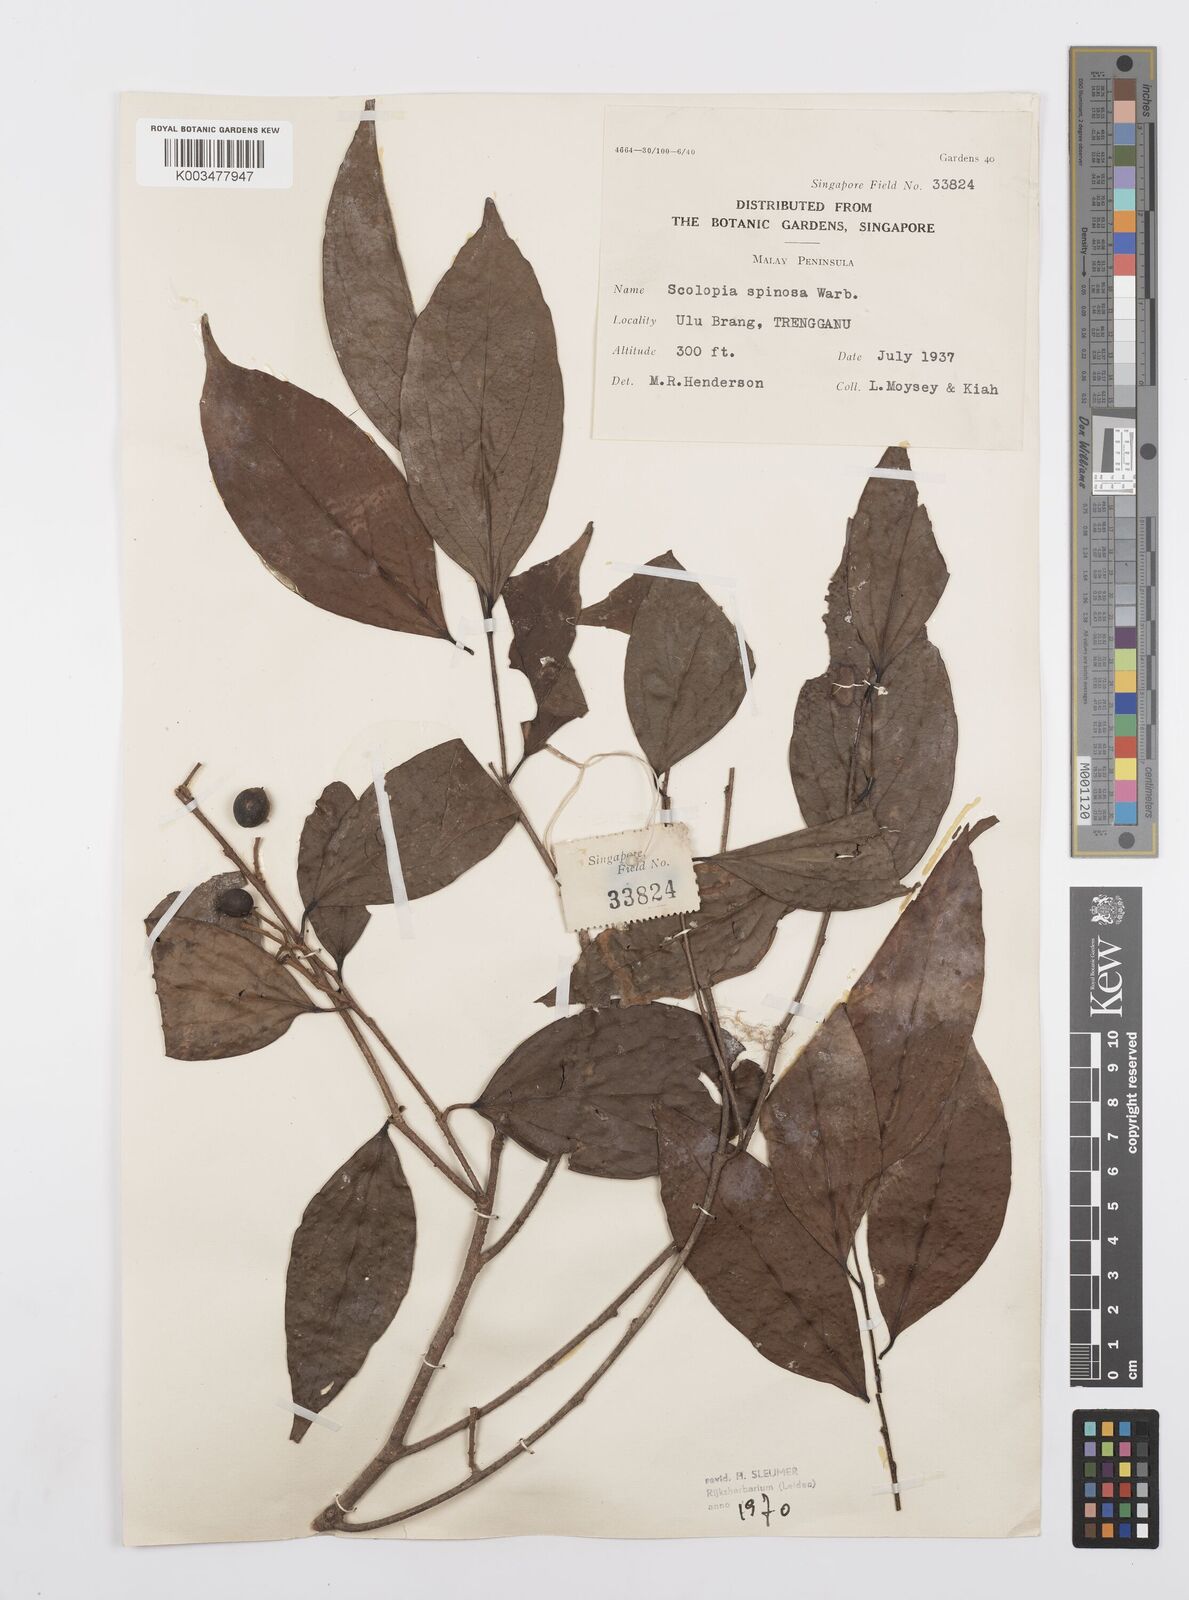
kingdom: Plantae
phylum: Tracheophyta
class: Magnoliopsida
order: Malpighiales
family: Salicaceae
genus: Scolopia
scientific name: Scolopia spinosa
